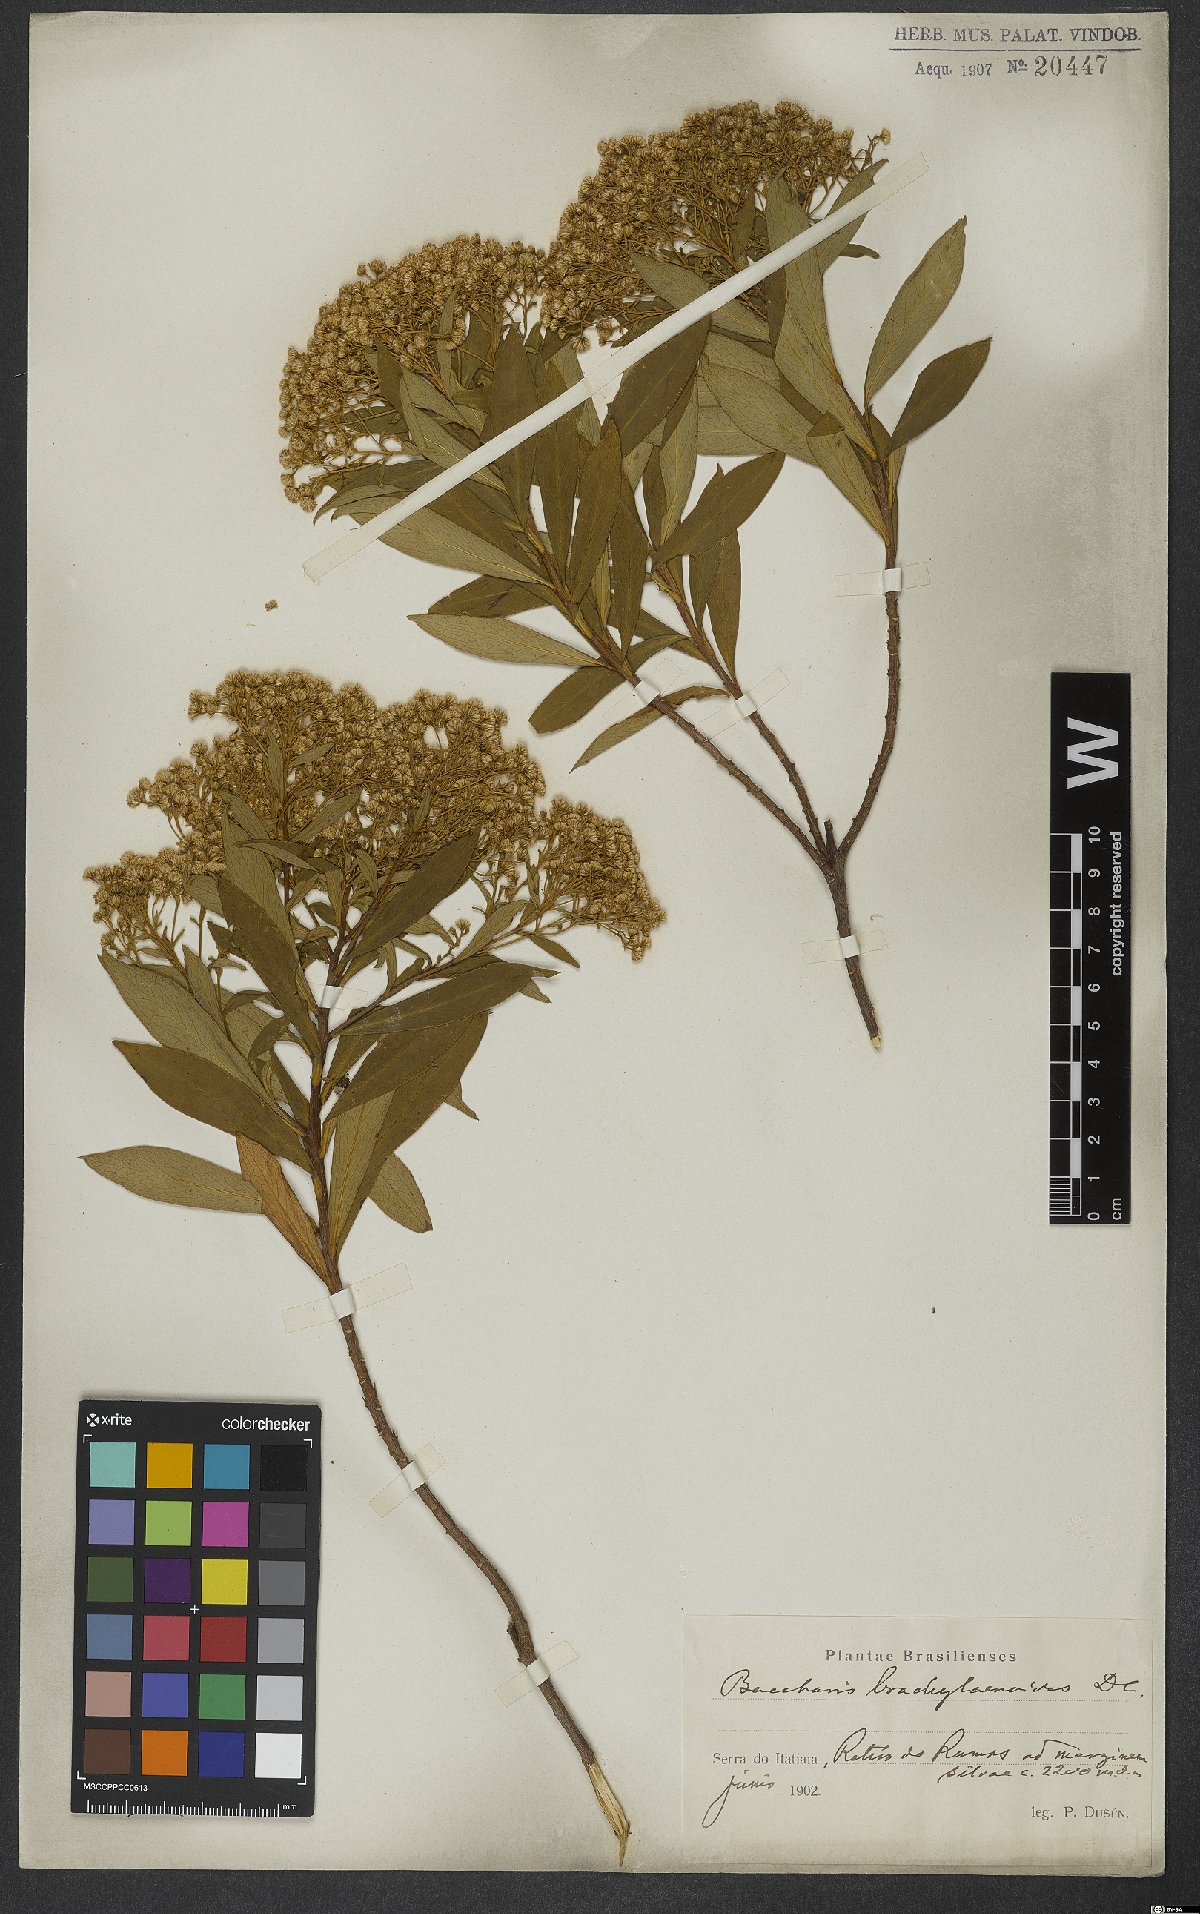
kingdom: Plantae
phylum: Tracheophyta
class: Magnoliopsida
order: Asterales
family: Asteraceae
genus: Baccharis
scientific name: Baccharis oblongifolia
